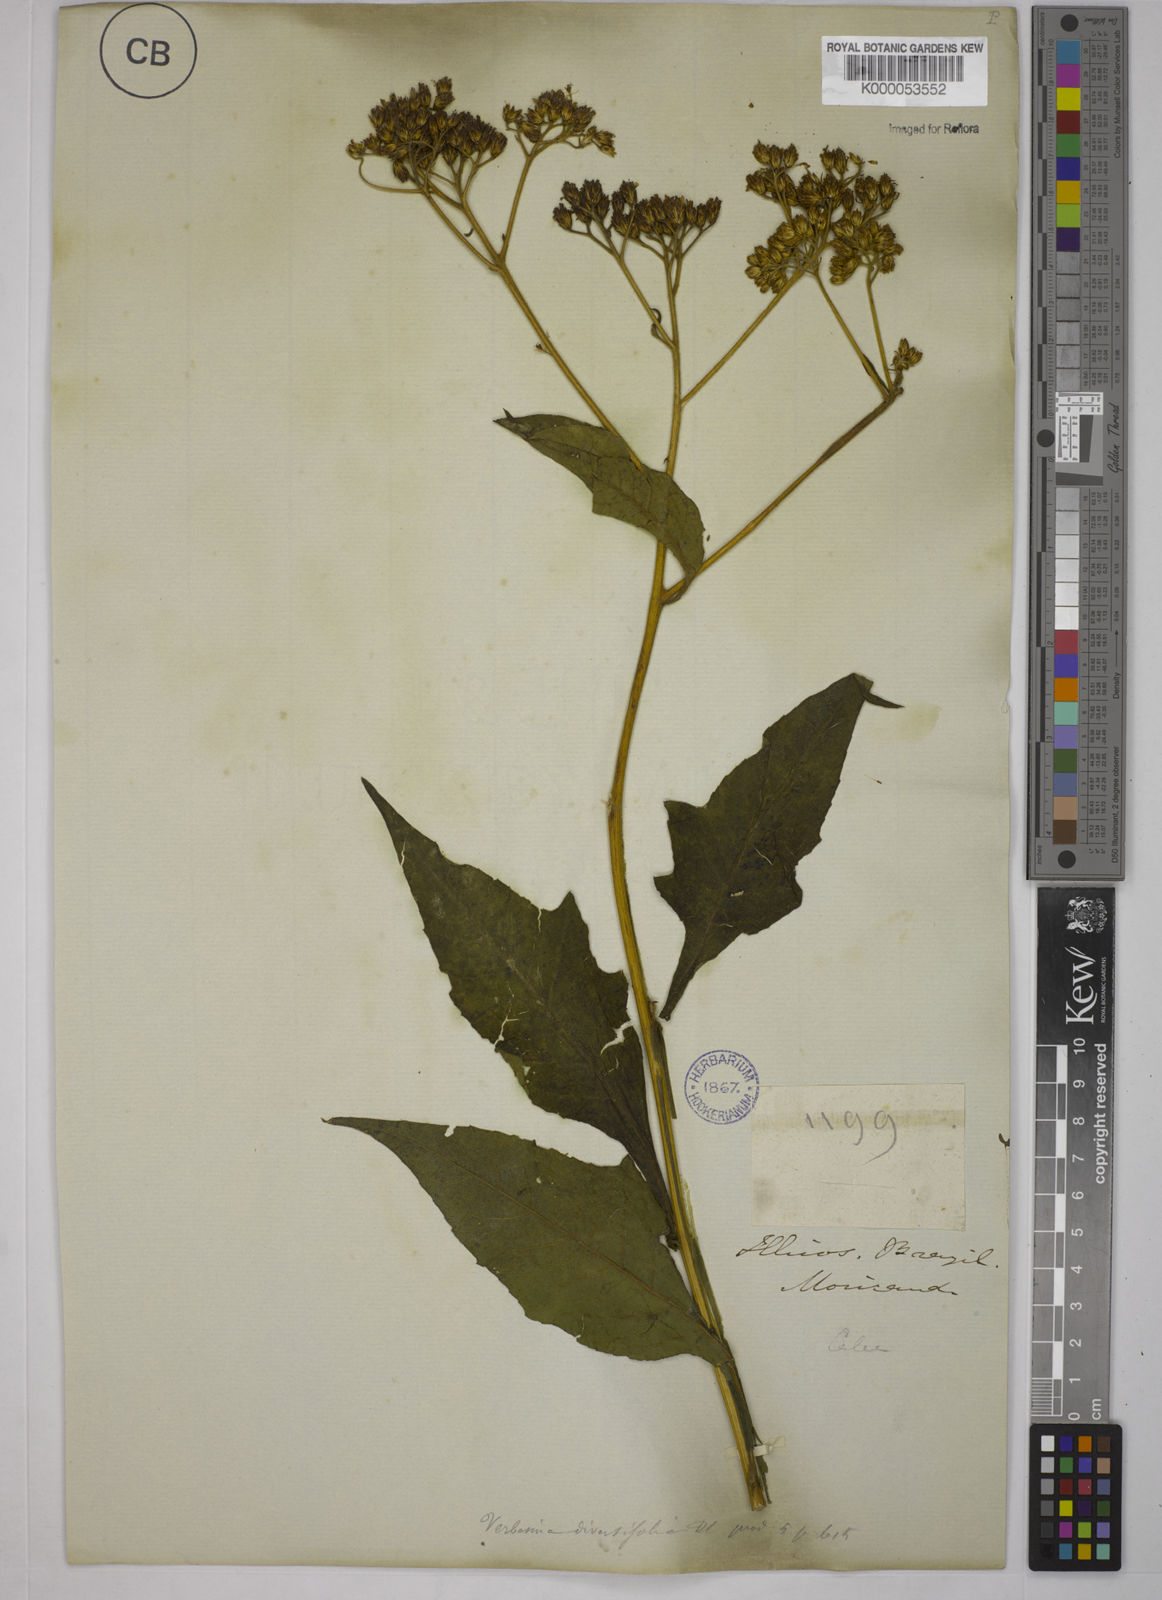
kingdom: Plantae
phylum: Tracheophyta
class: Magnoliopsida
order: Asterales
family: Asteraceae
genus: Verbesina
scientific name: Verbesina macrophylla
